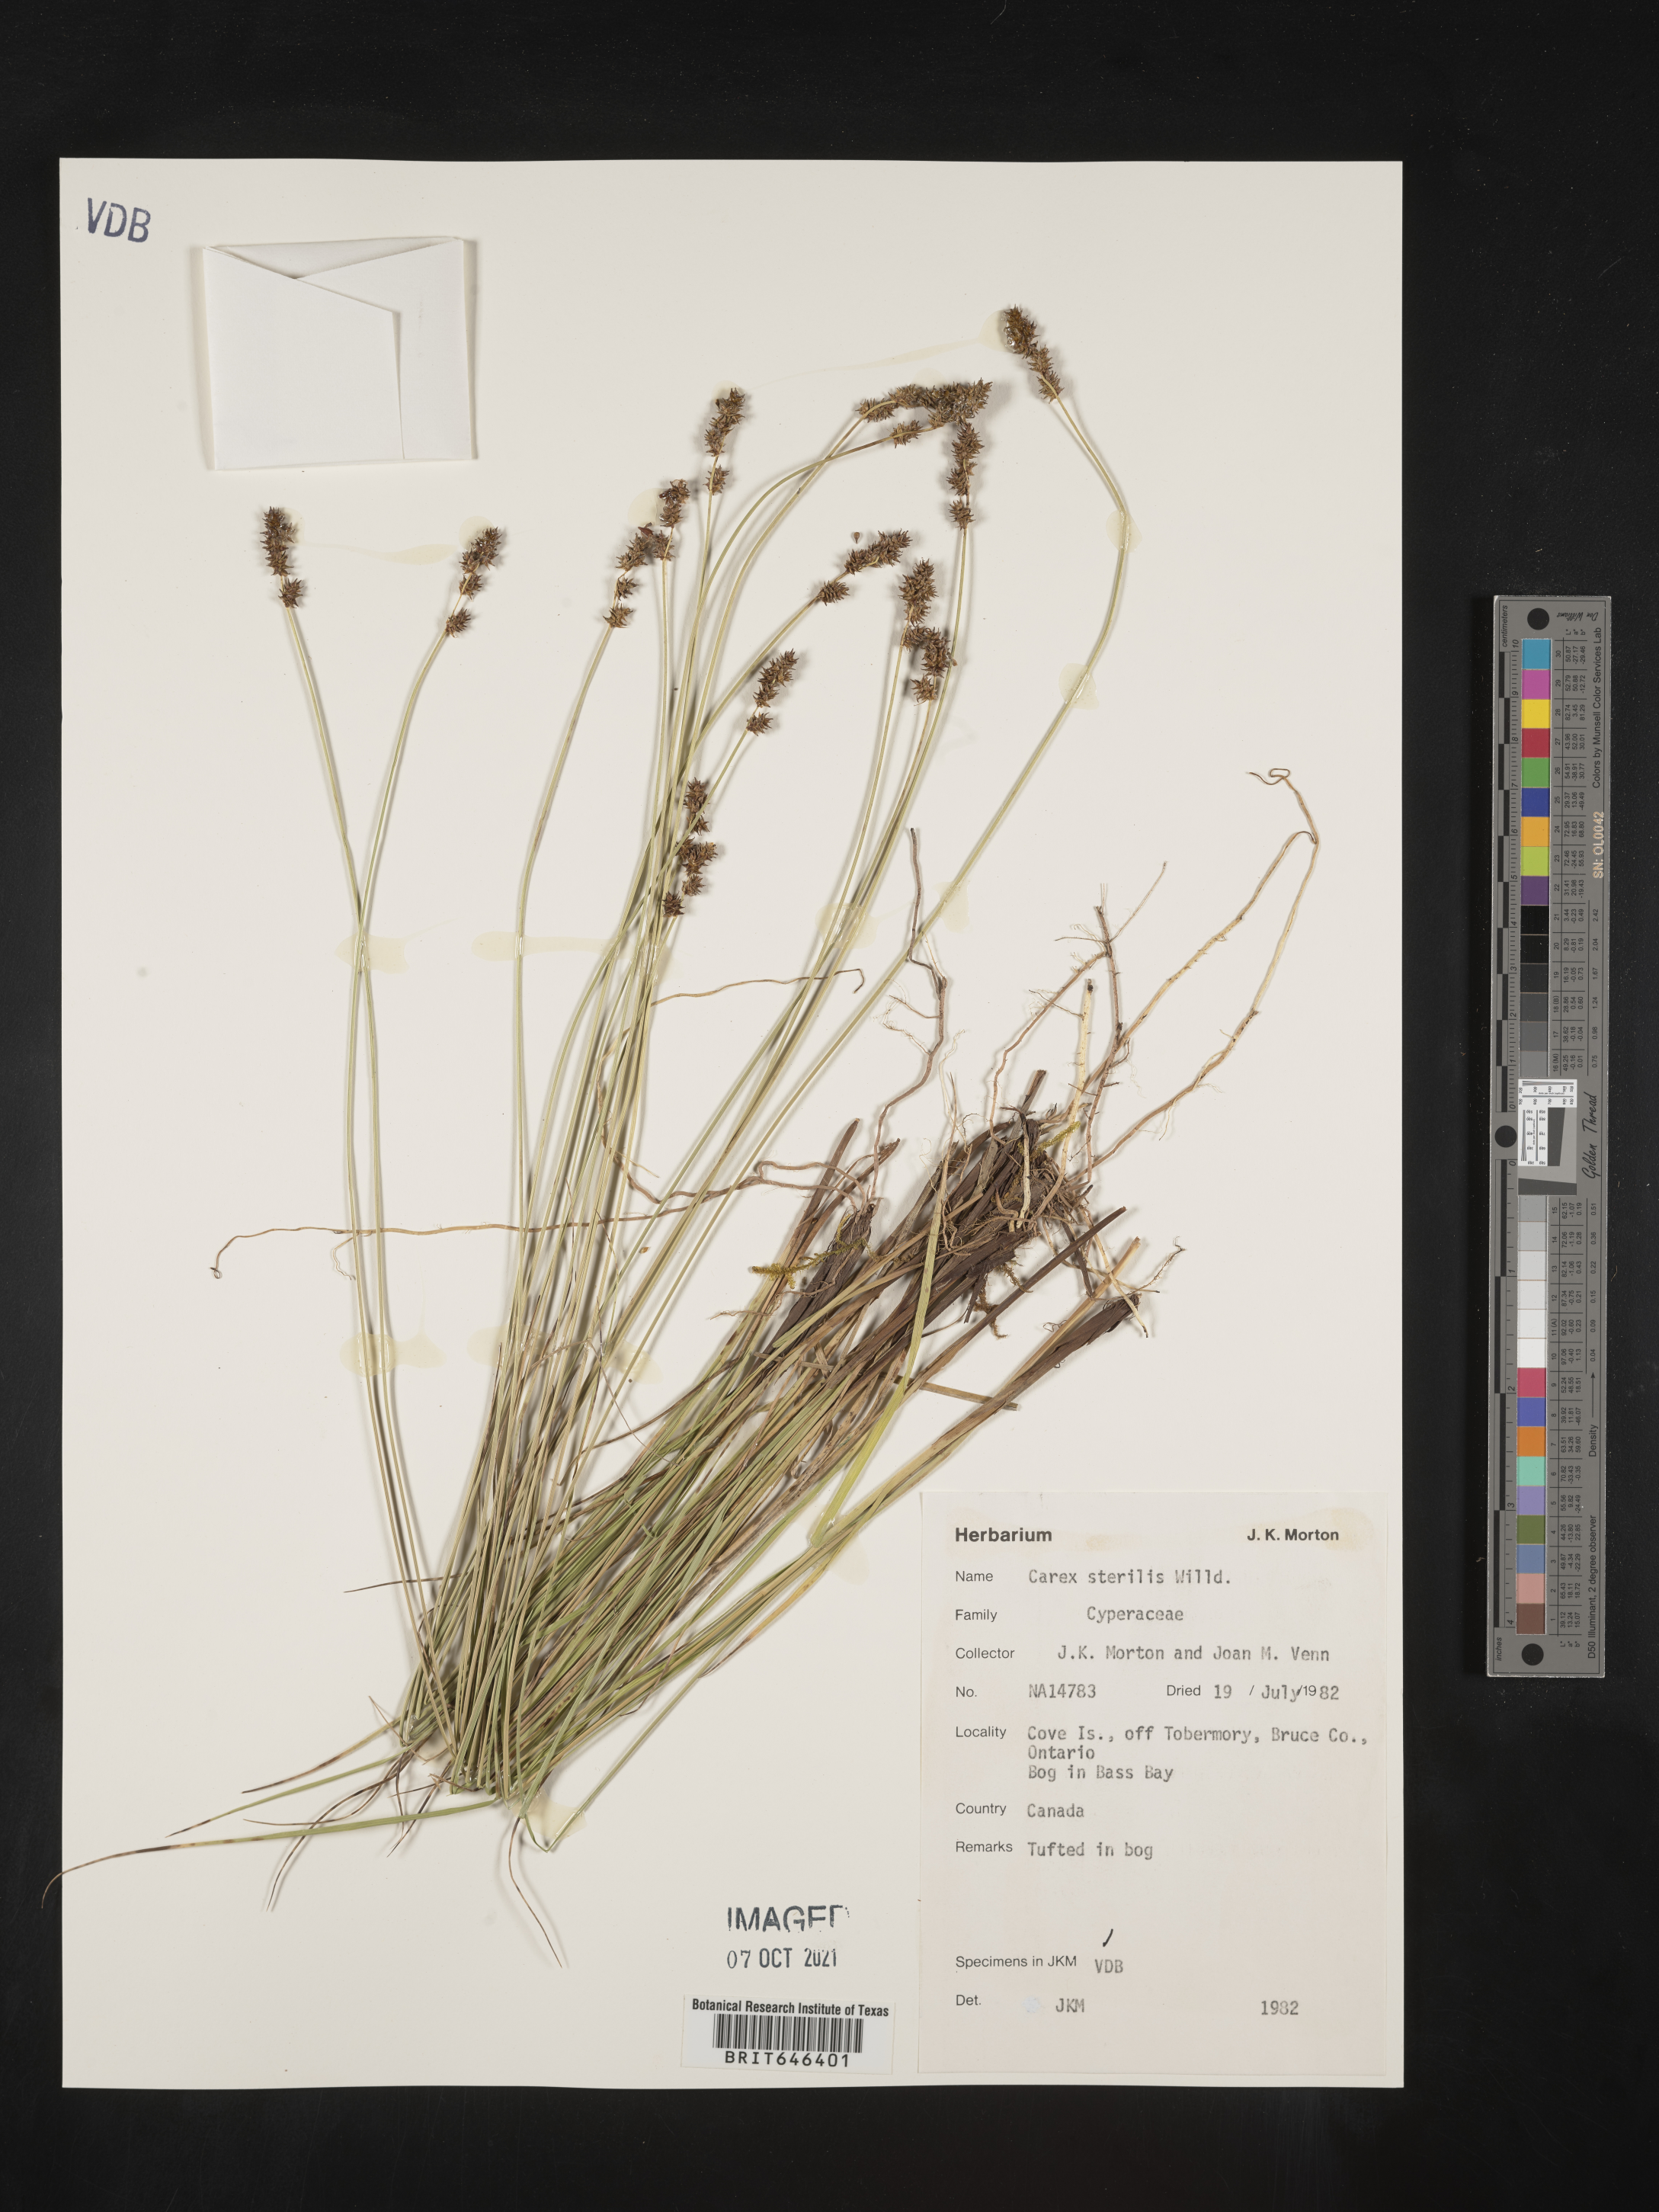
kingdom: Plantae
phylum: Tracheophyta
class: Liliopsida
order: Poales
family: Cyperaceae
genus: Carex
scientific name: Carex sterilis
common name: Dioecious sedge
